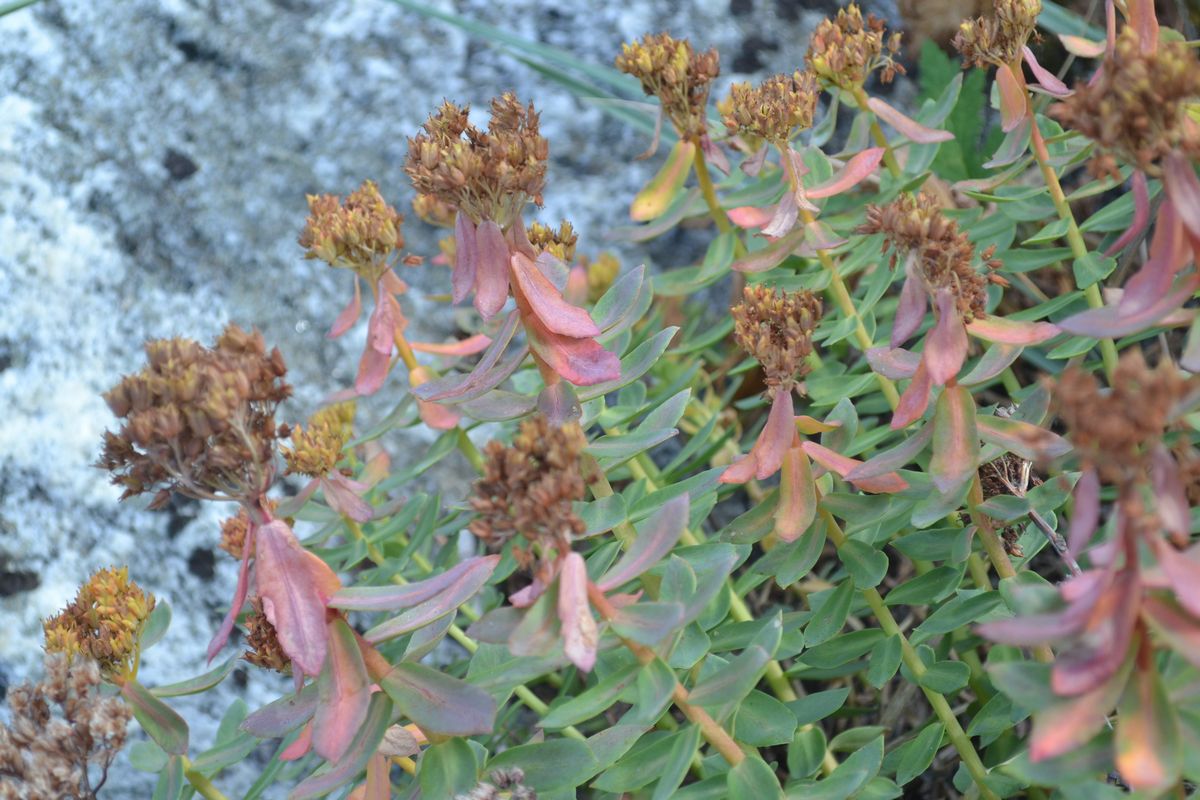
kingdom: Plantae
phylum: Tracheophyta
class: Magnoliopsida
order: Saxifragales
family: Crassulaceae
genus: Rhodiola
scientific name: Rhodiola rosea
